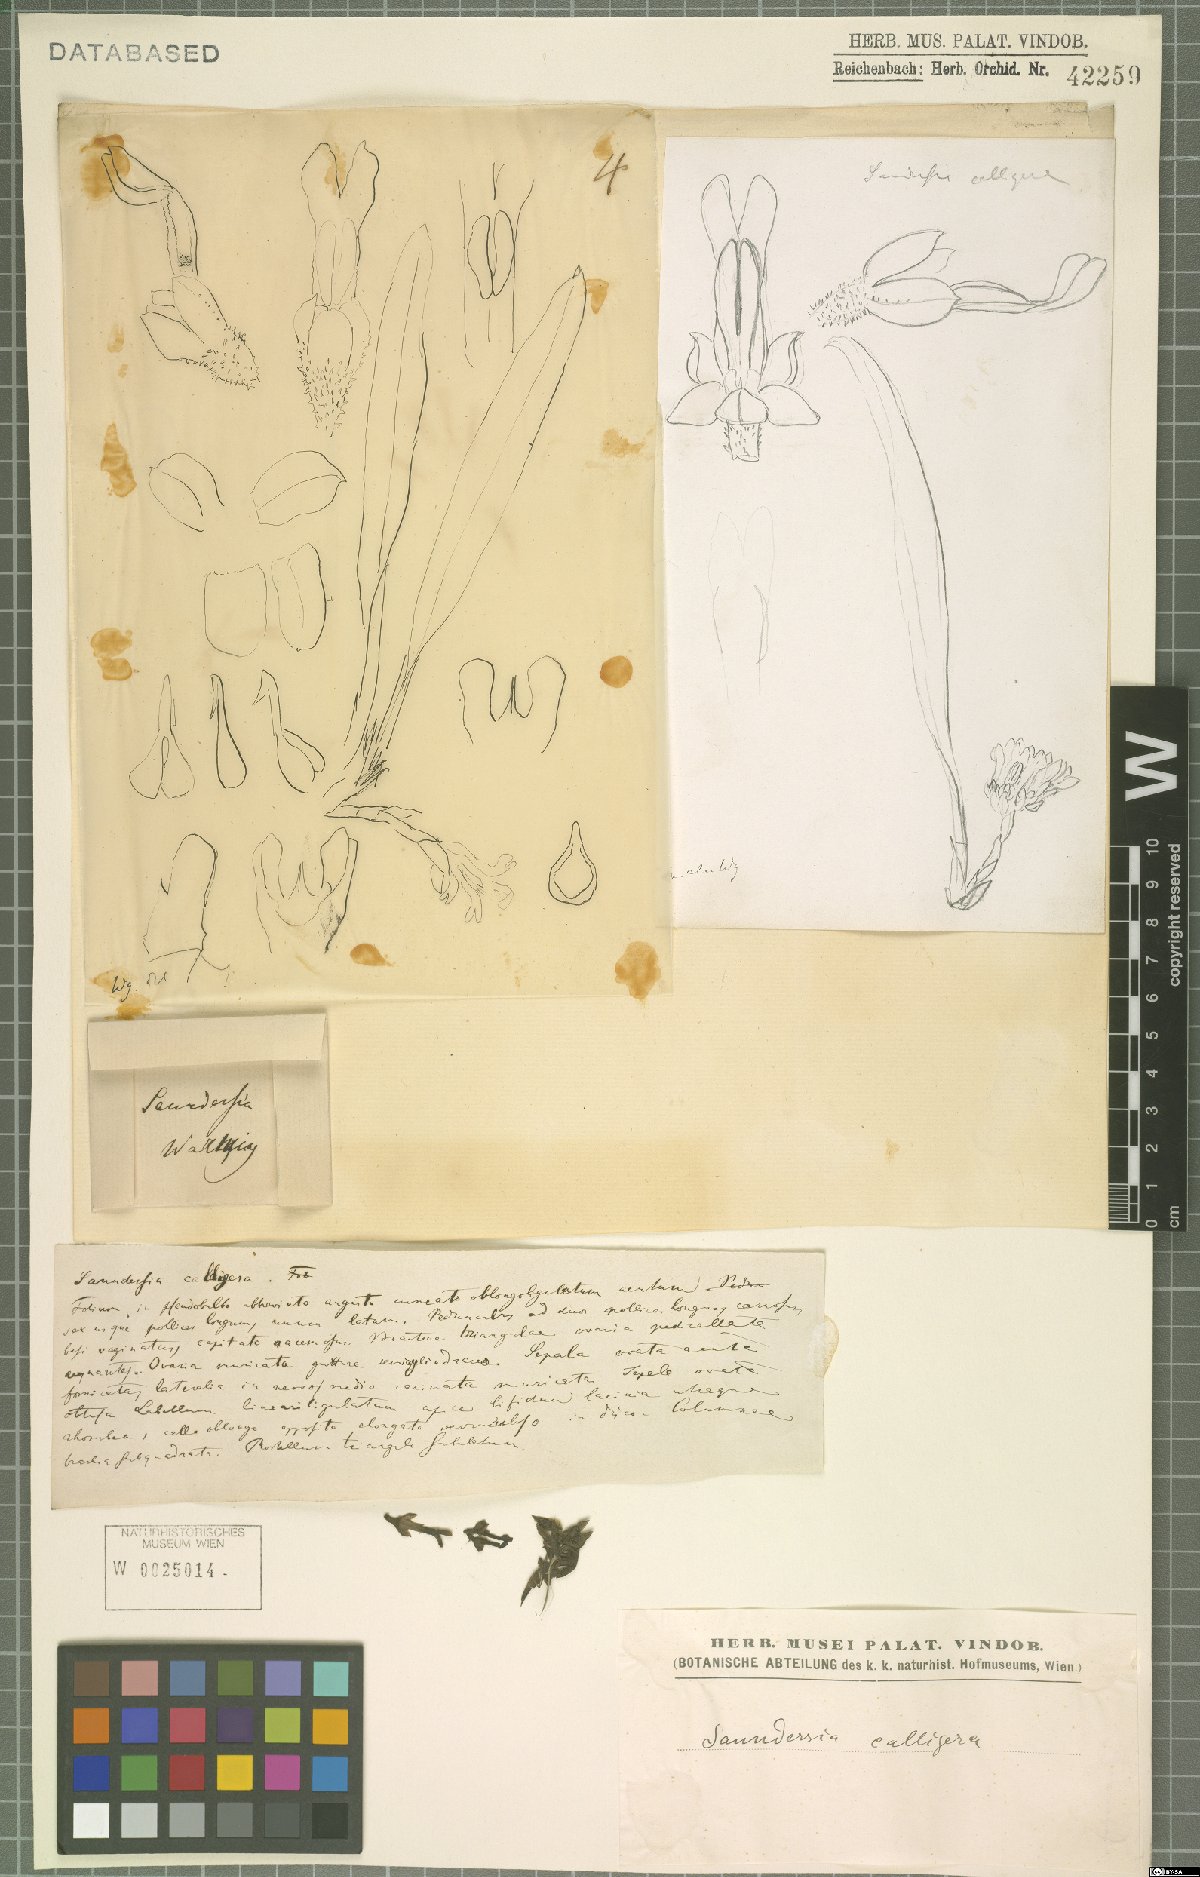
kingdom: Plantae
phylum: Tracheophyta
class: Liliopsida
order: Asparagales
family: Orchidaceae
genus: Saundersia
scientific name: Saundersia mirabilis
